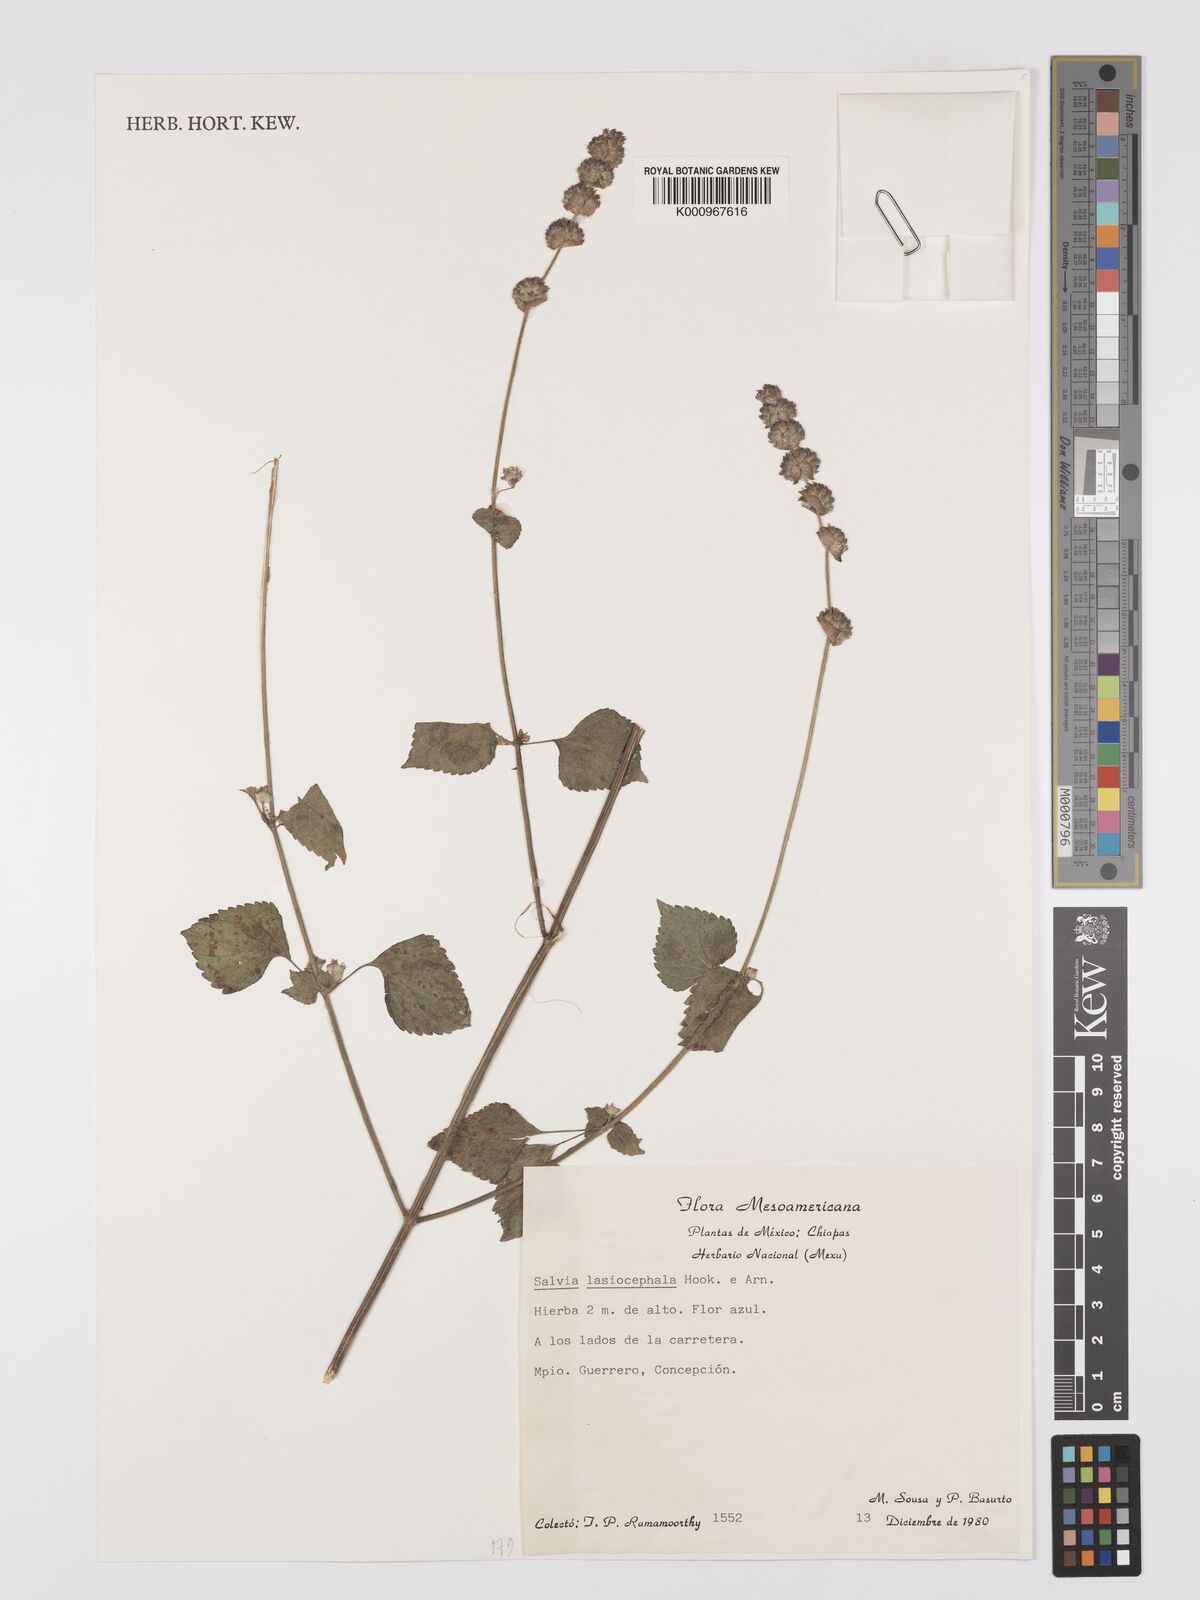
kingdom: Plantae
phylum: Tracheophyta
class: Magnoliopsida
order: Lamiales
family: Lamiaceae
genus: Salvia
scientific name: Salvia lasiocephala
